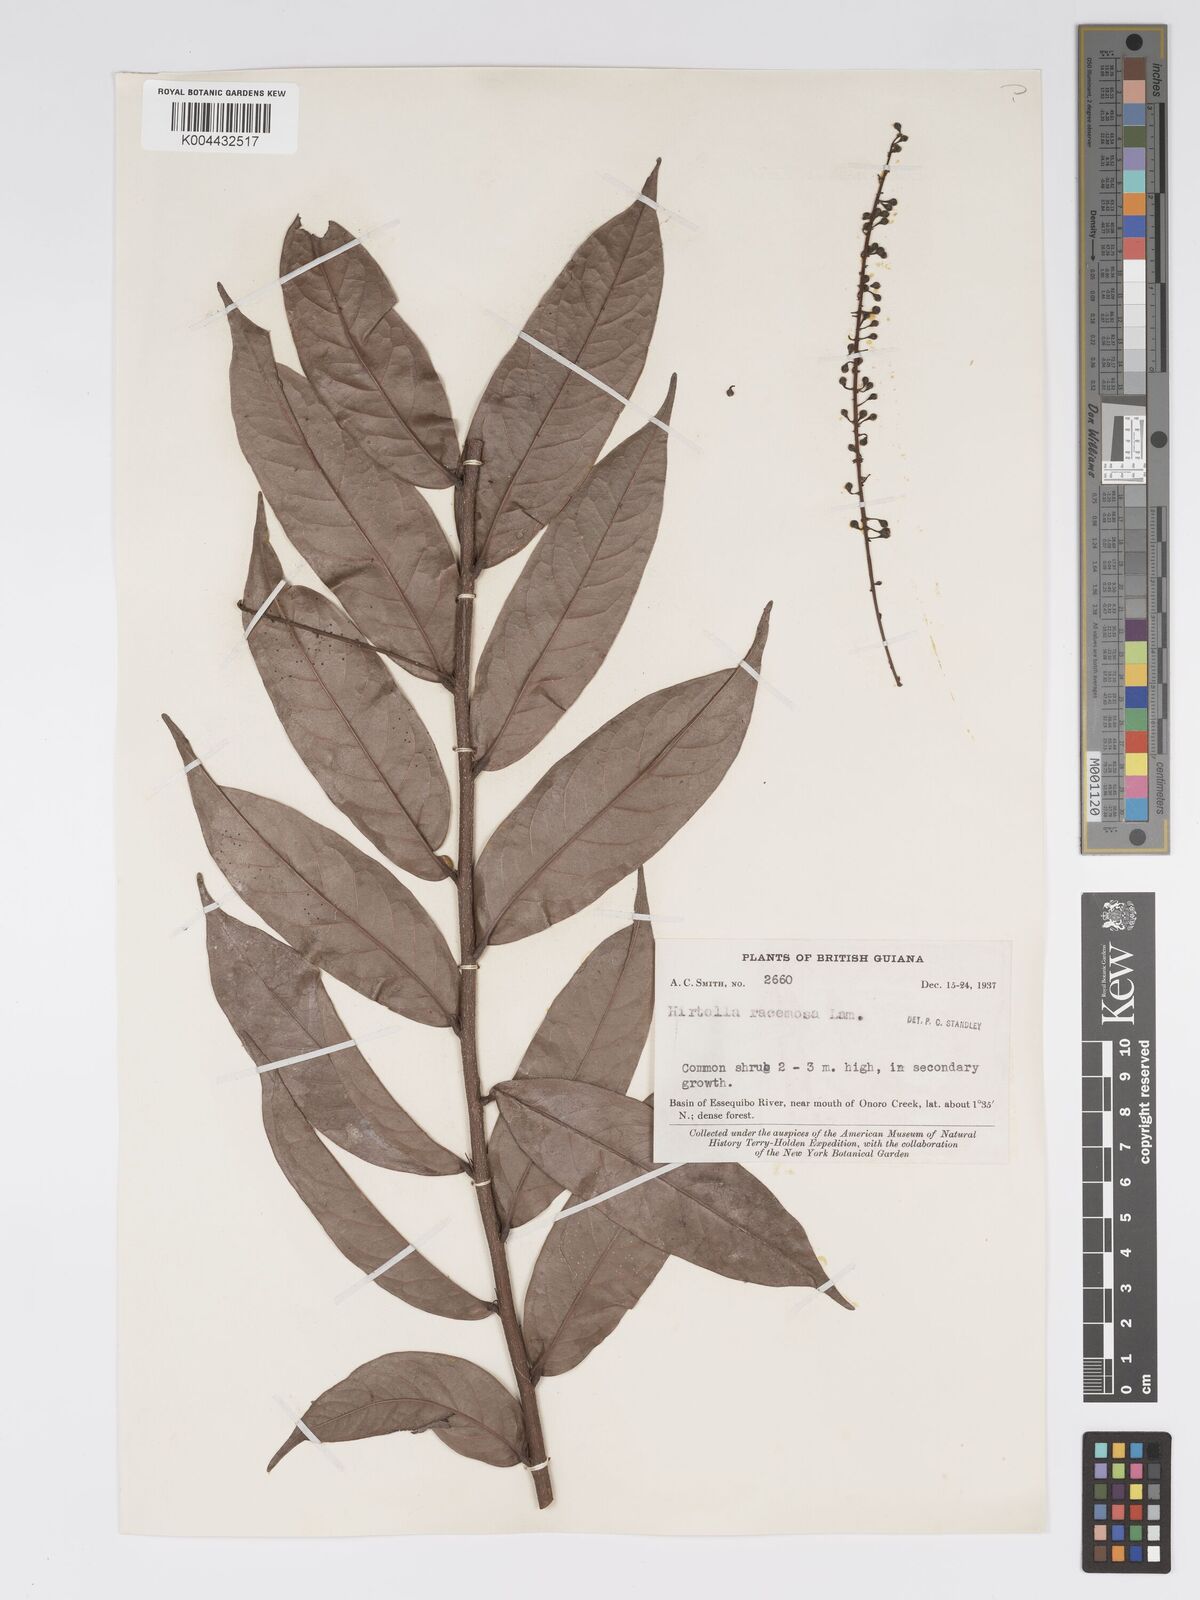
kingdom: Plantae
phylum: Tracheophyta
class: Magnoliopsida
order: Malpighiales
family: Chrysobalanaceae
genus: Hirtella
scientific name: Hirtella
